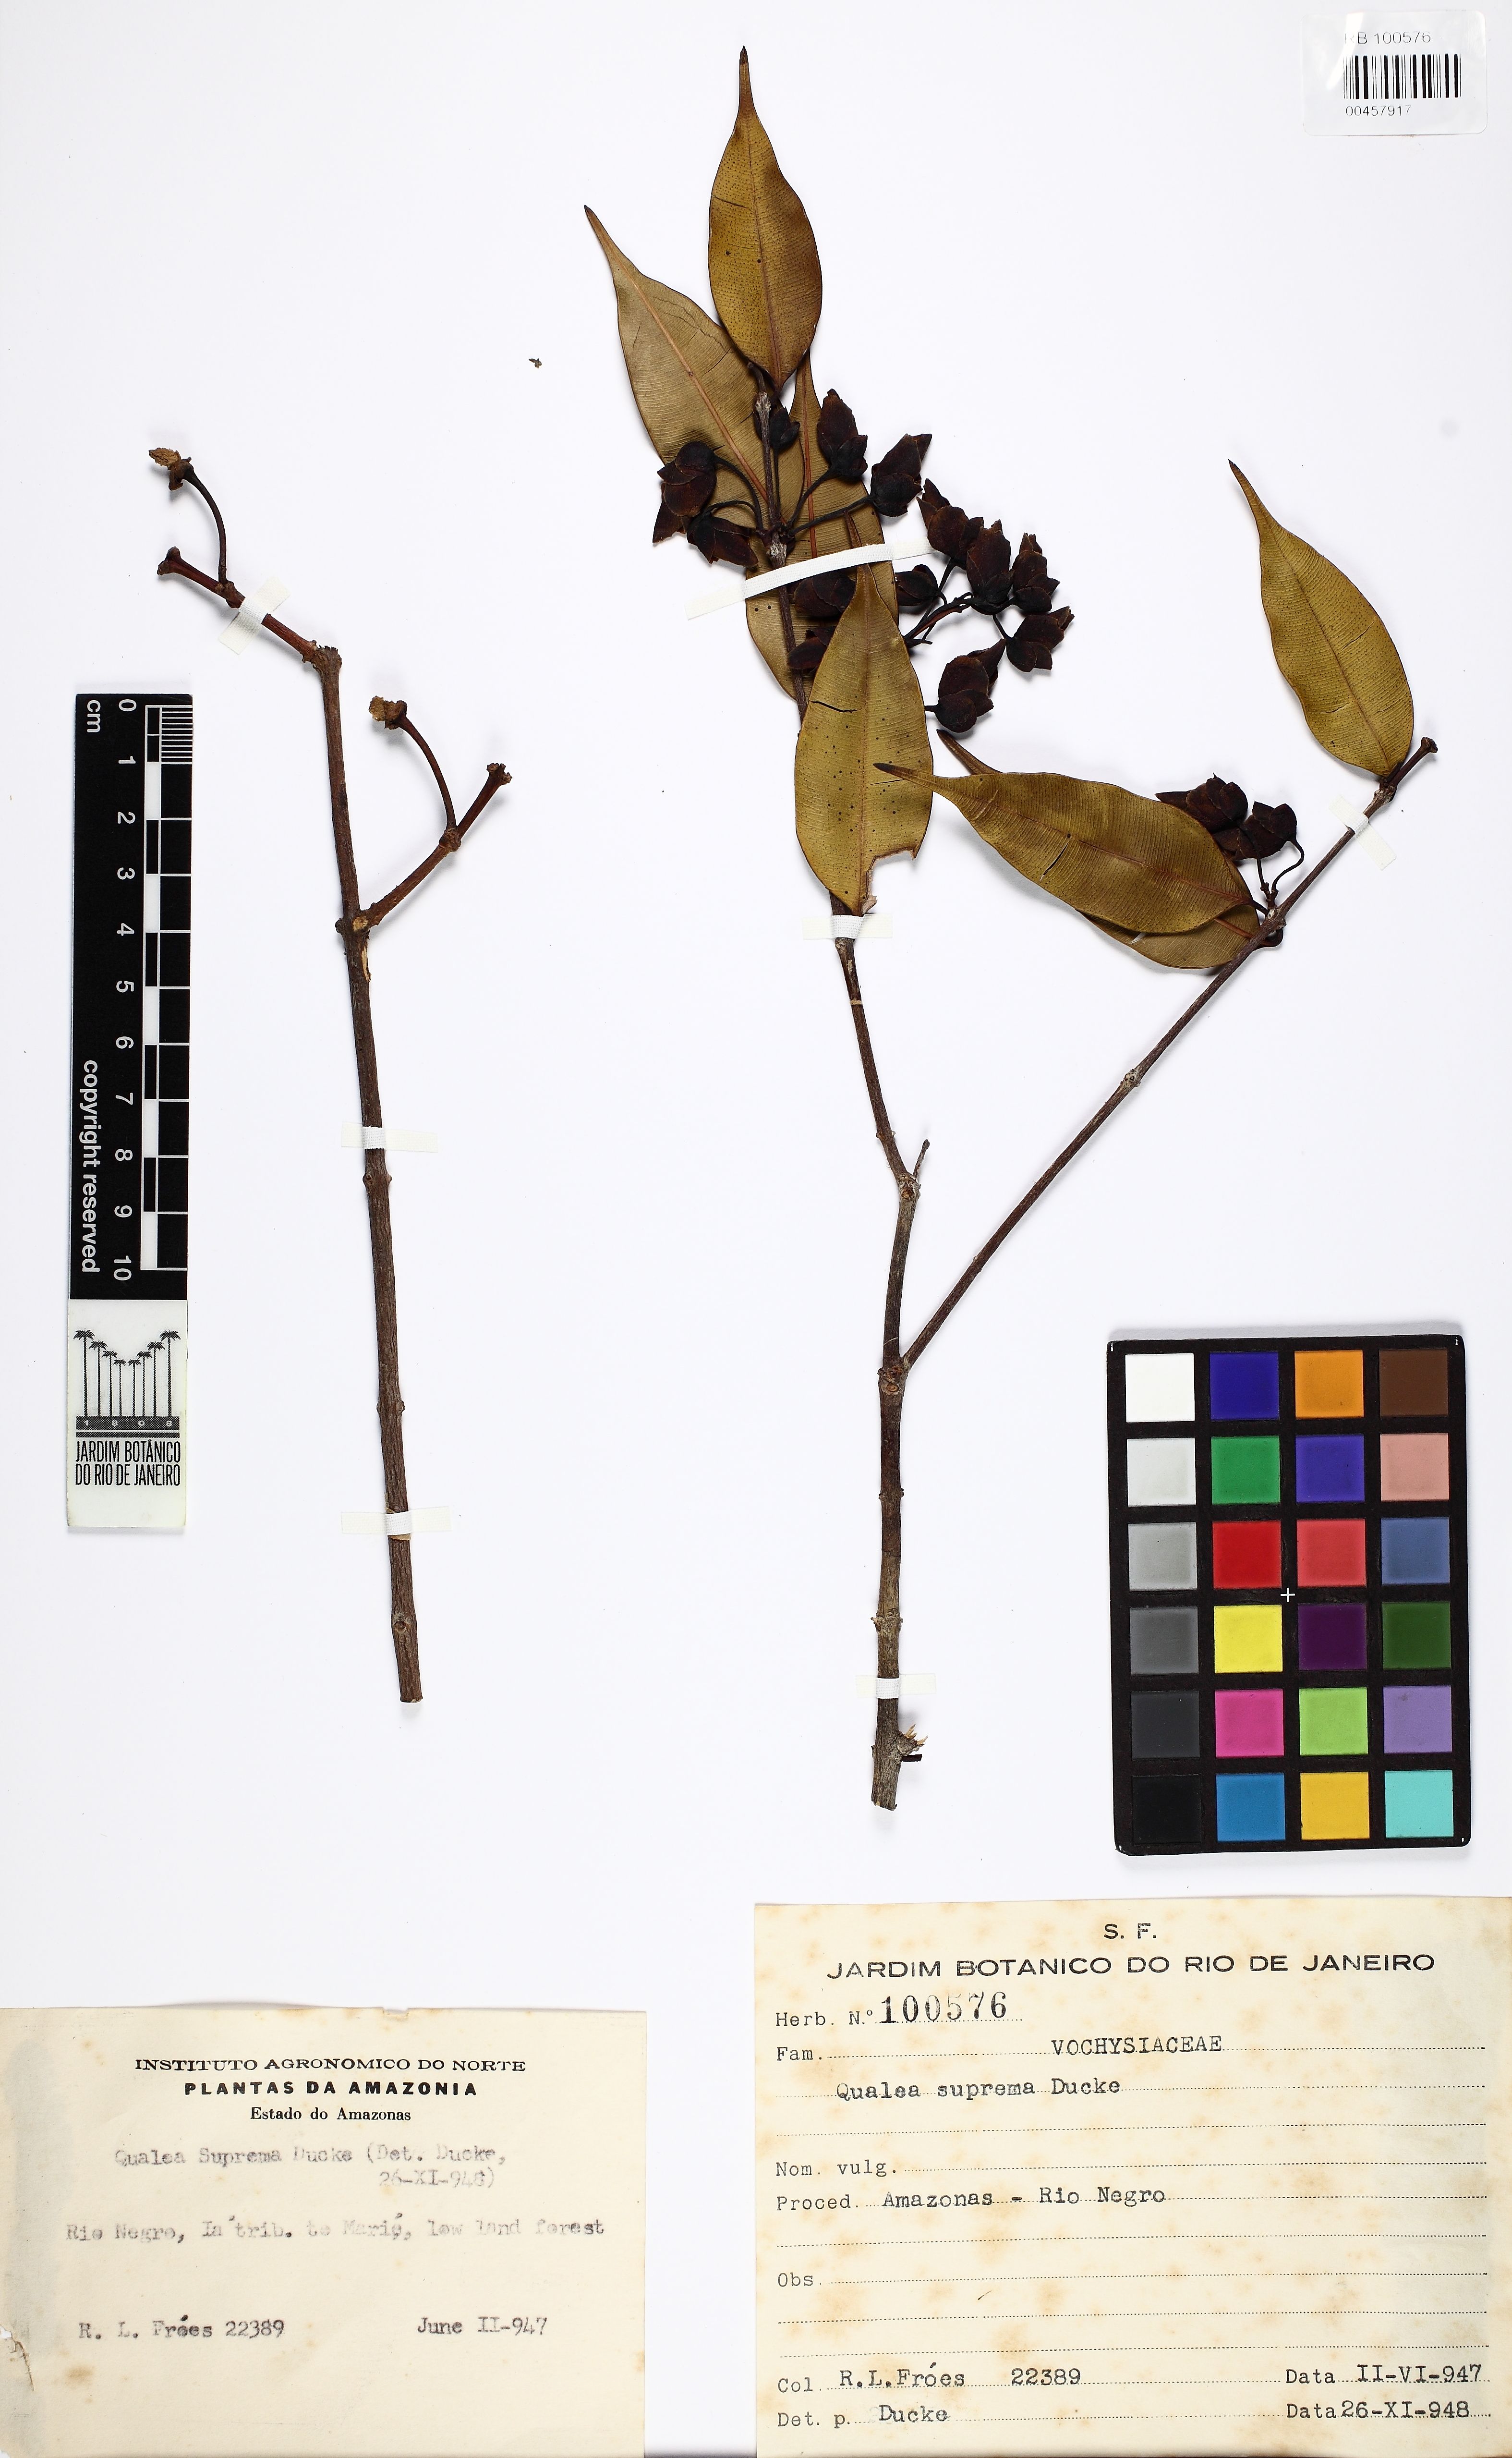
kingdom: Plantae
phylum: Tracheophyta
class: Magnoliopsida
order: Myrtales
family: Vochysiaceae
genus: Qualea
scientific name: Qualea suprema
